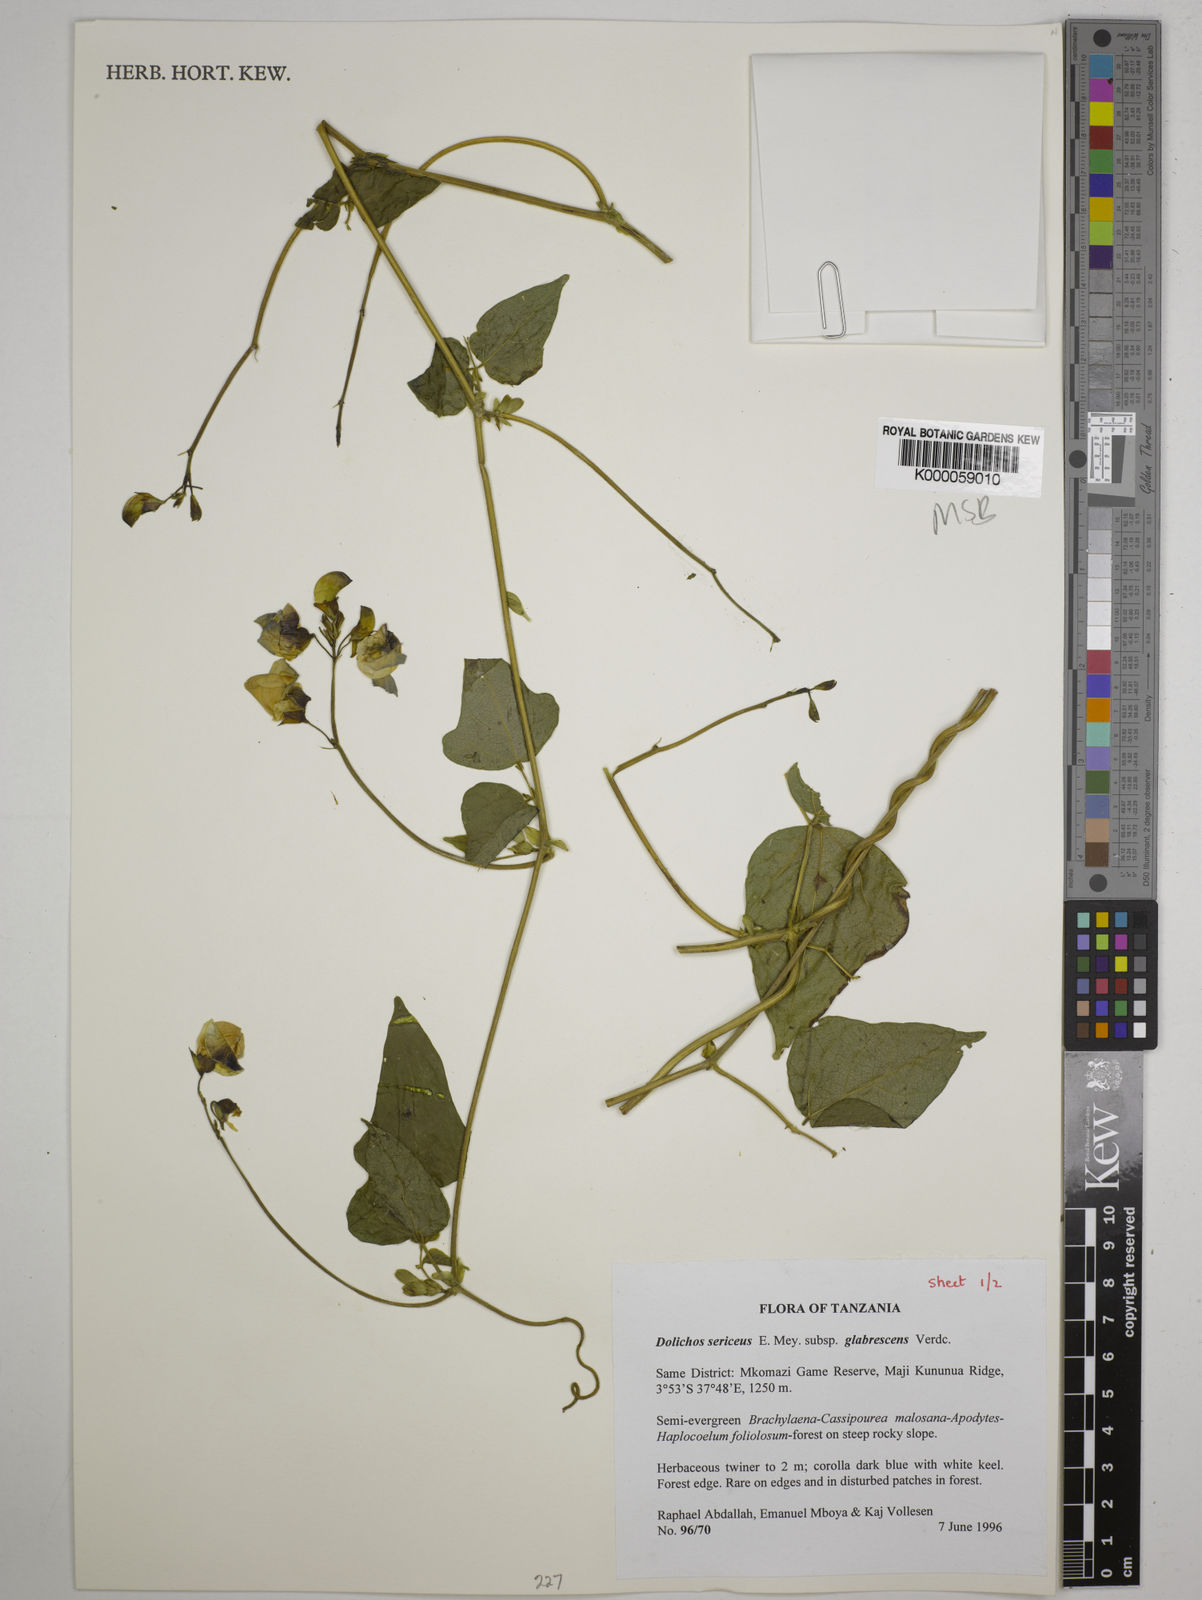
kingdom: Plantae
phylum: Tracheophyta
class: Magnoliopsida
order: Fabales
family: Fabaceae
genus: Dolichos
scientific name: Dolichos sericeus
